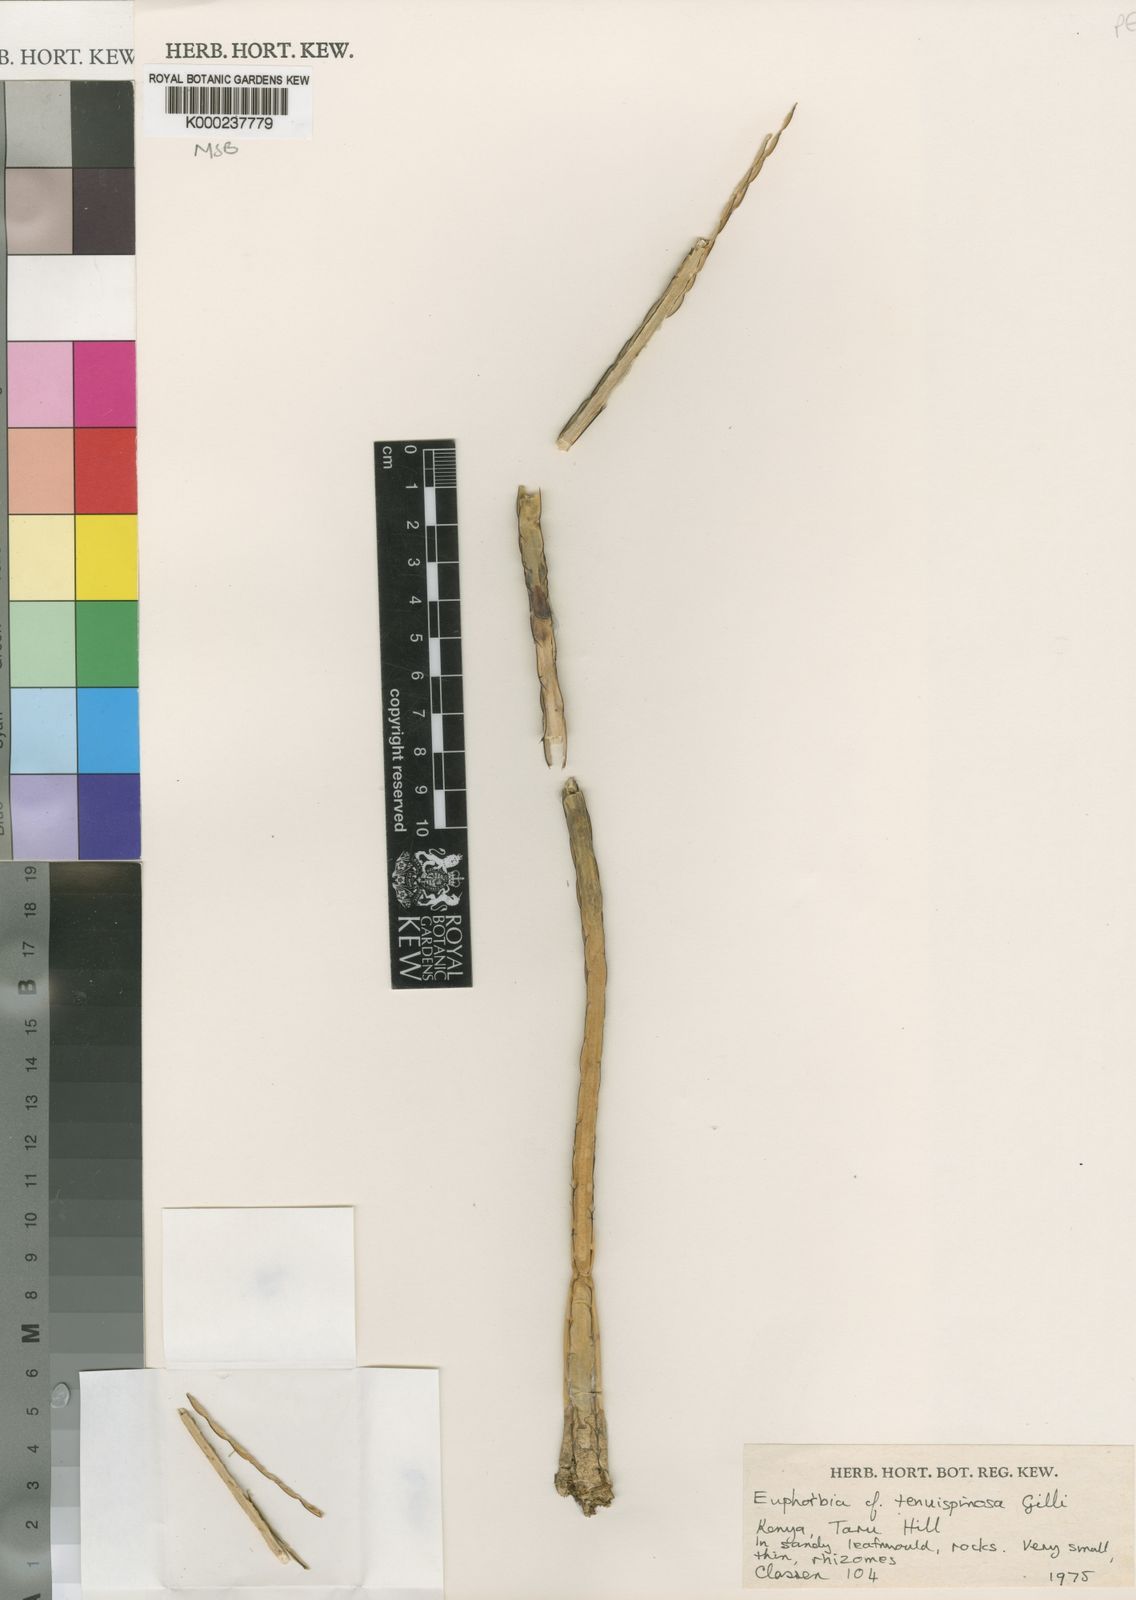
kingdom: Plantae
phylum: Tracheophyta
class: Magnoliopsida
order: Malpighiales
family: Euphorbiaceae
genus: Euphorbia
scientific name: Euphorbia taruensis
